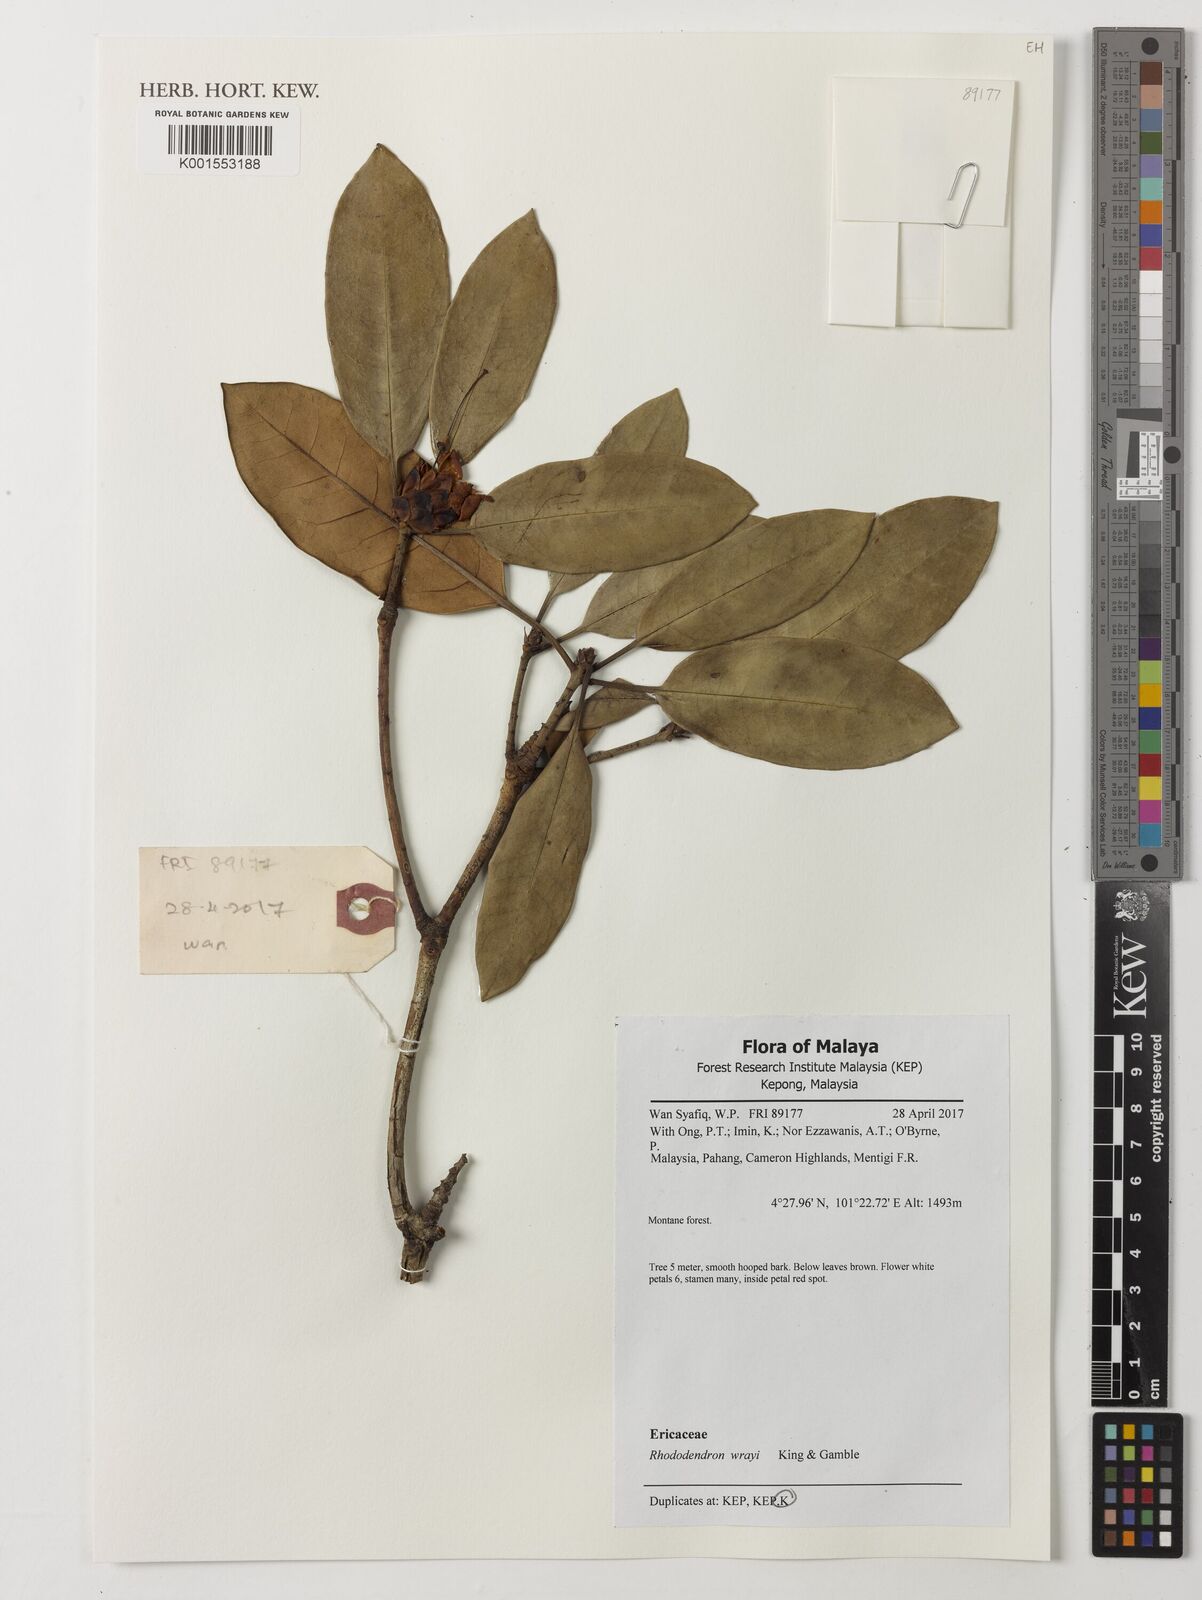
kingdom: Plantae
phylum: Tracheophyta
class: Magnoliopsida
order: Ericales
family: Ericaceae
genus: Rhododendron
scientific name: Rhododendron wrayi
